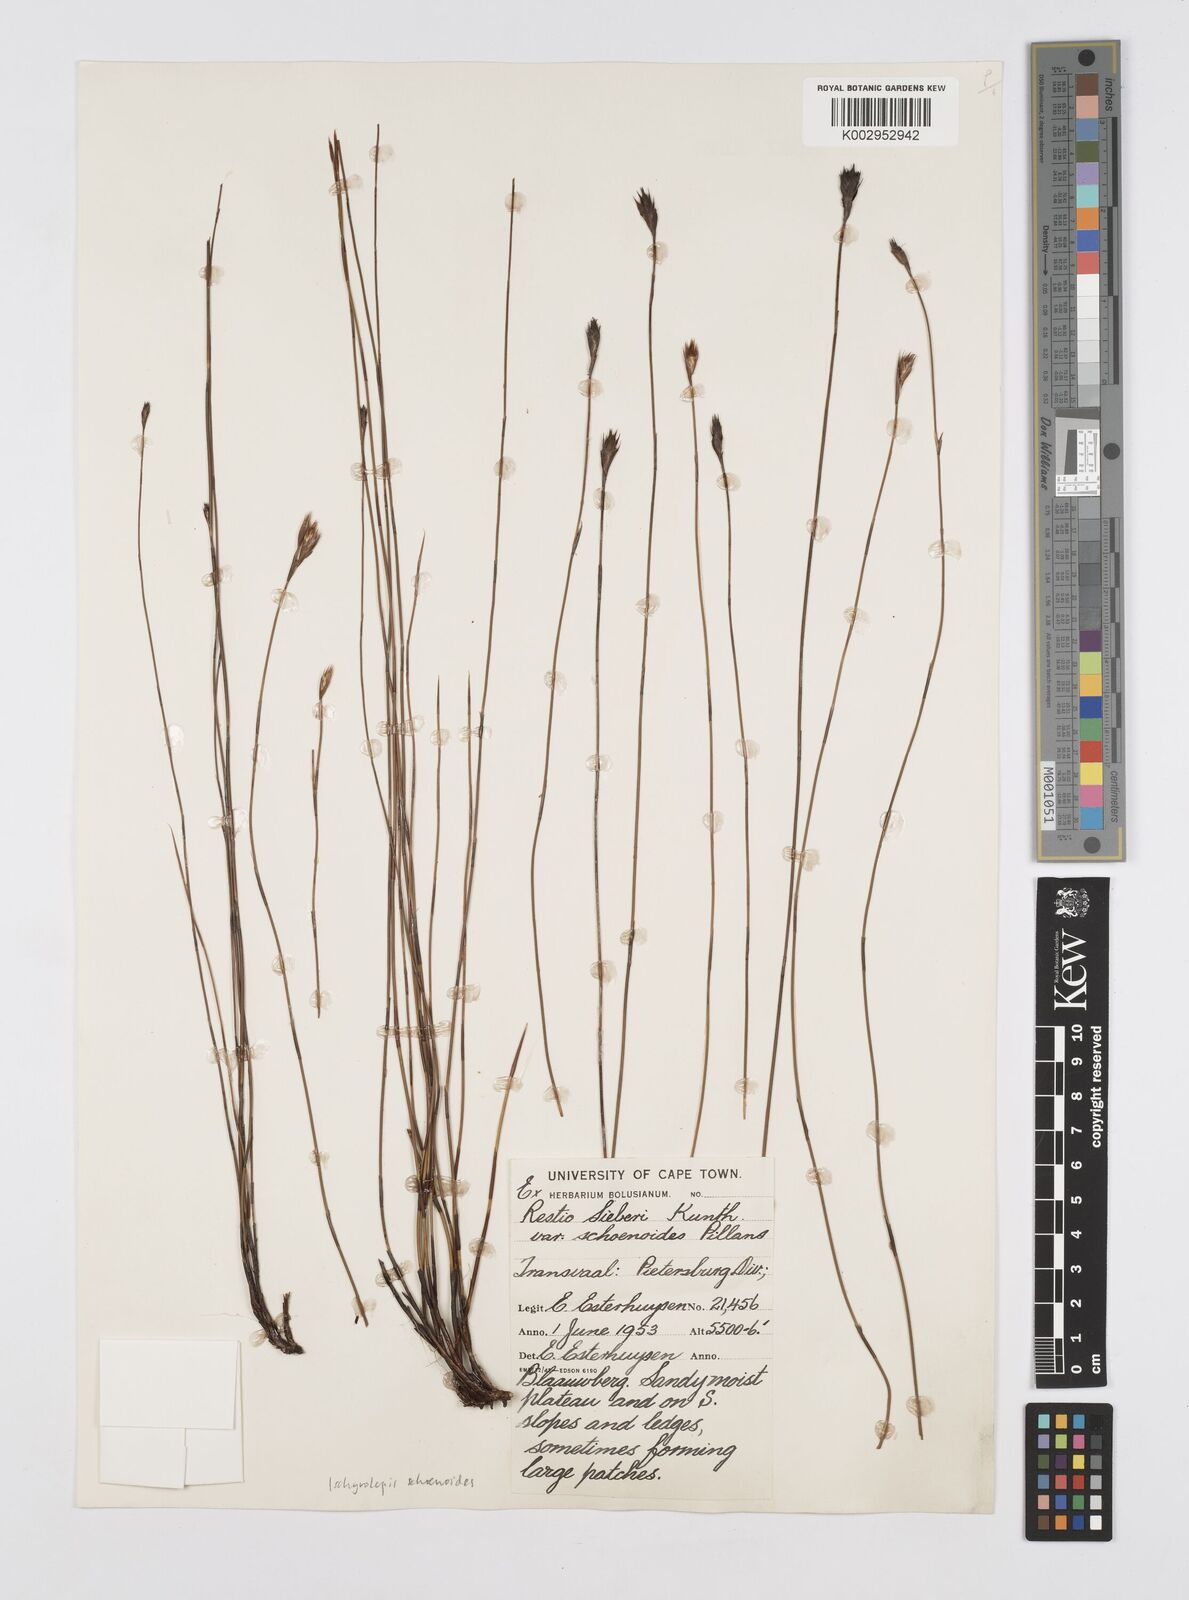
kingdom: Plantae
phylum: Tracheophyta
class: Liliopsida
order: Poales
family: Restionaceae
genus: Restio
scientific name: Restio schoenoides
